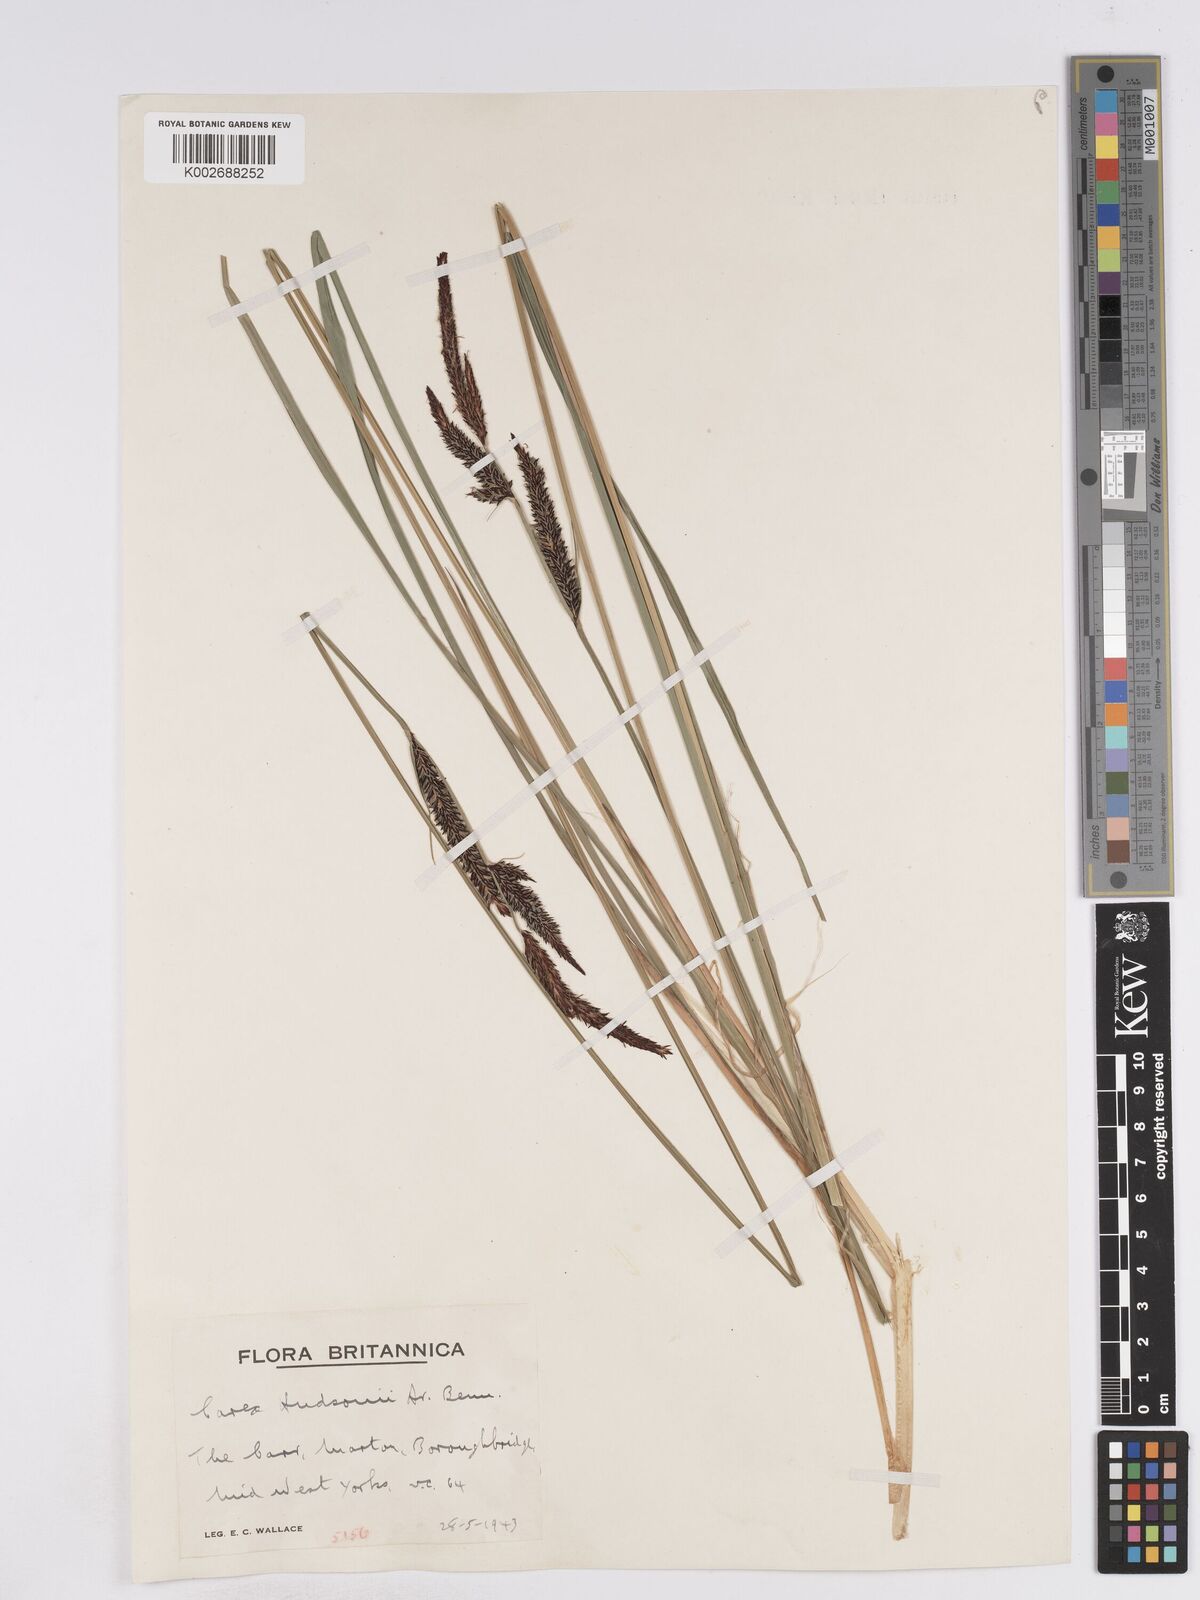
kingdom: Plantae
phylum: Tracheophyta
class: Liliopsida
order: Poales
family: Cyperaceae
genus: Carex
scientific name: Carex elata
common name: Tufted sedge
